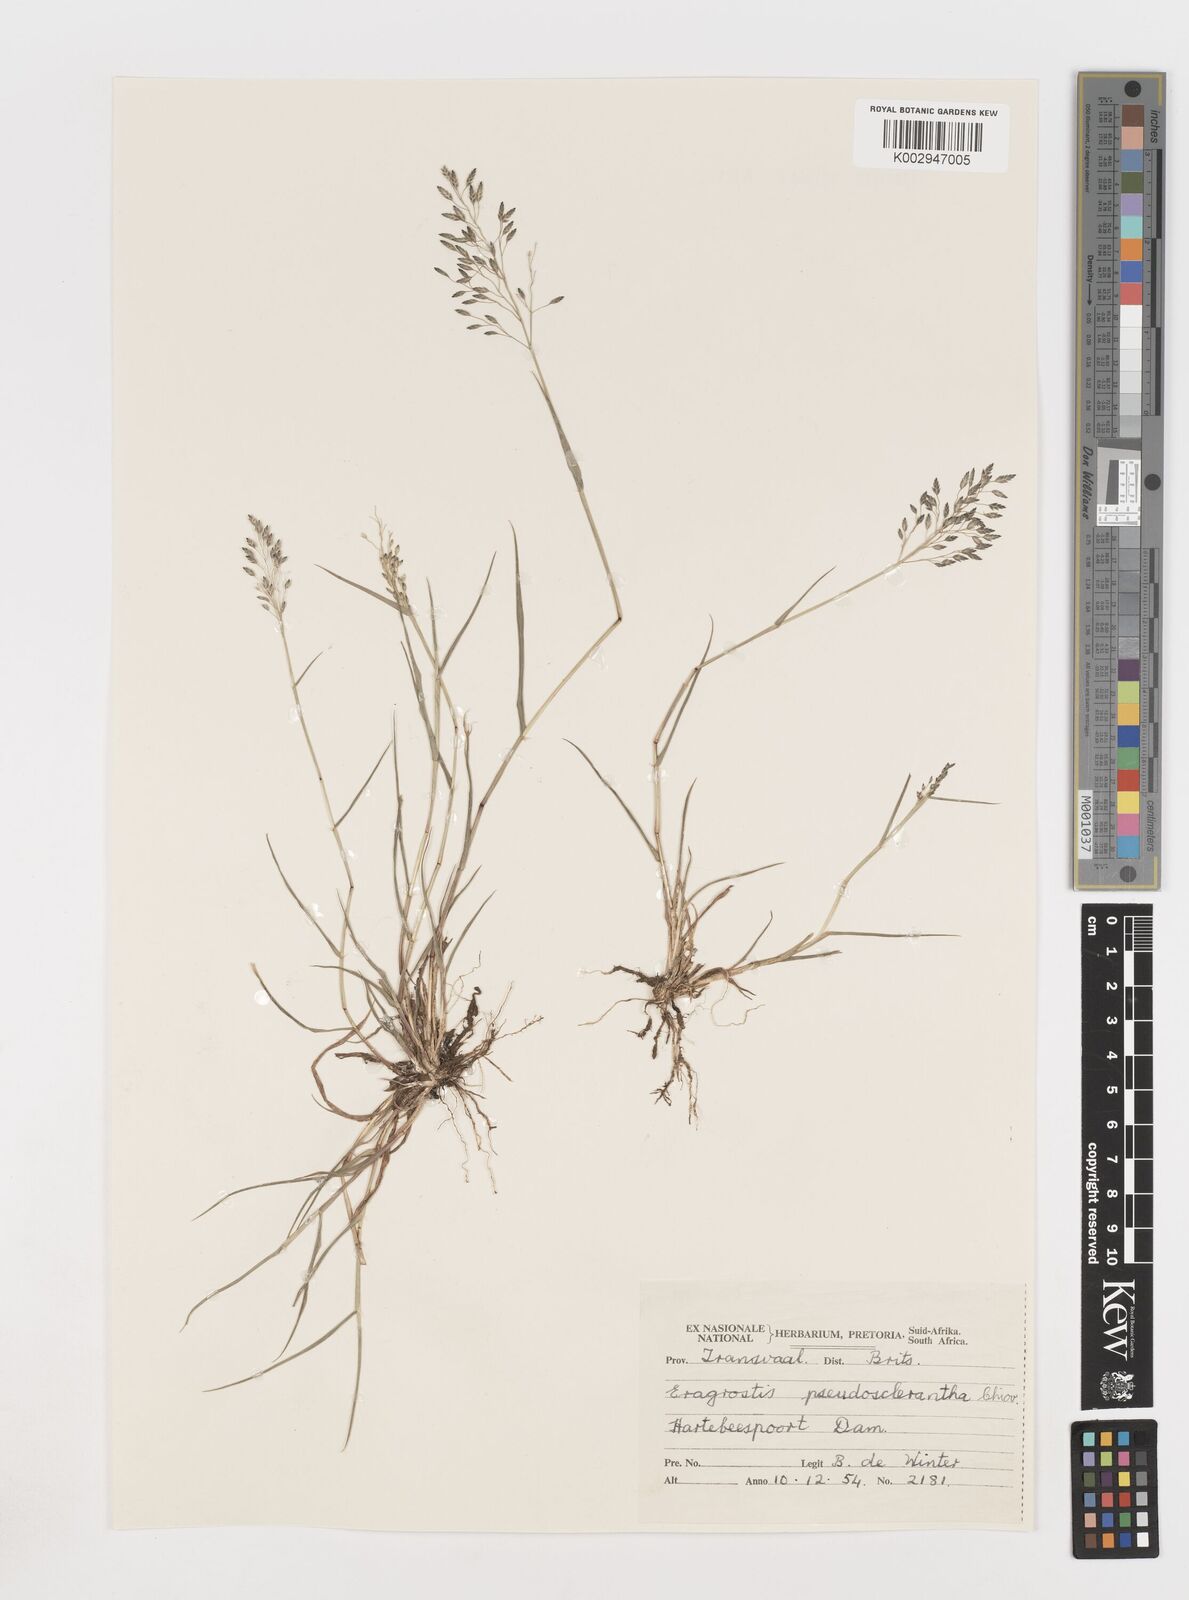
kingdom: Plantae
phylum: Tracheophyta
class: Liliopsida
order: Poales
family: Poaceae
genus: Eragrostis
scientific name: Eragrostis patentipilosa
